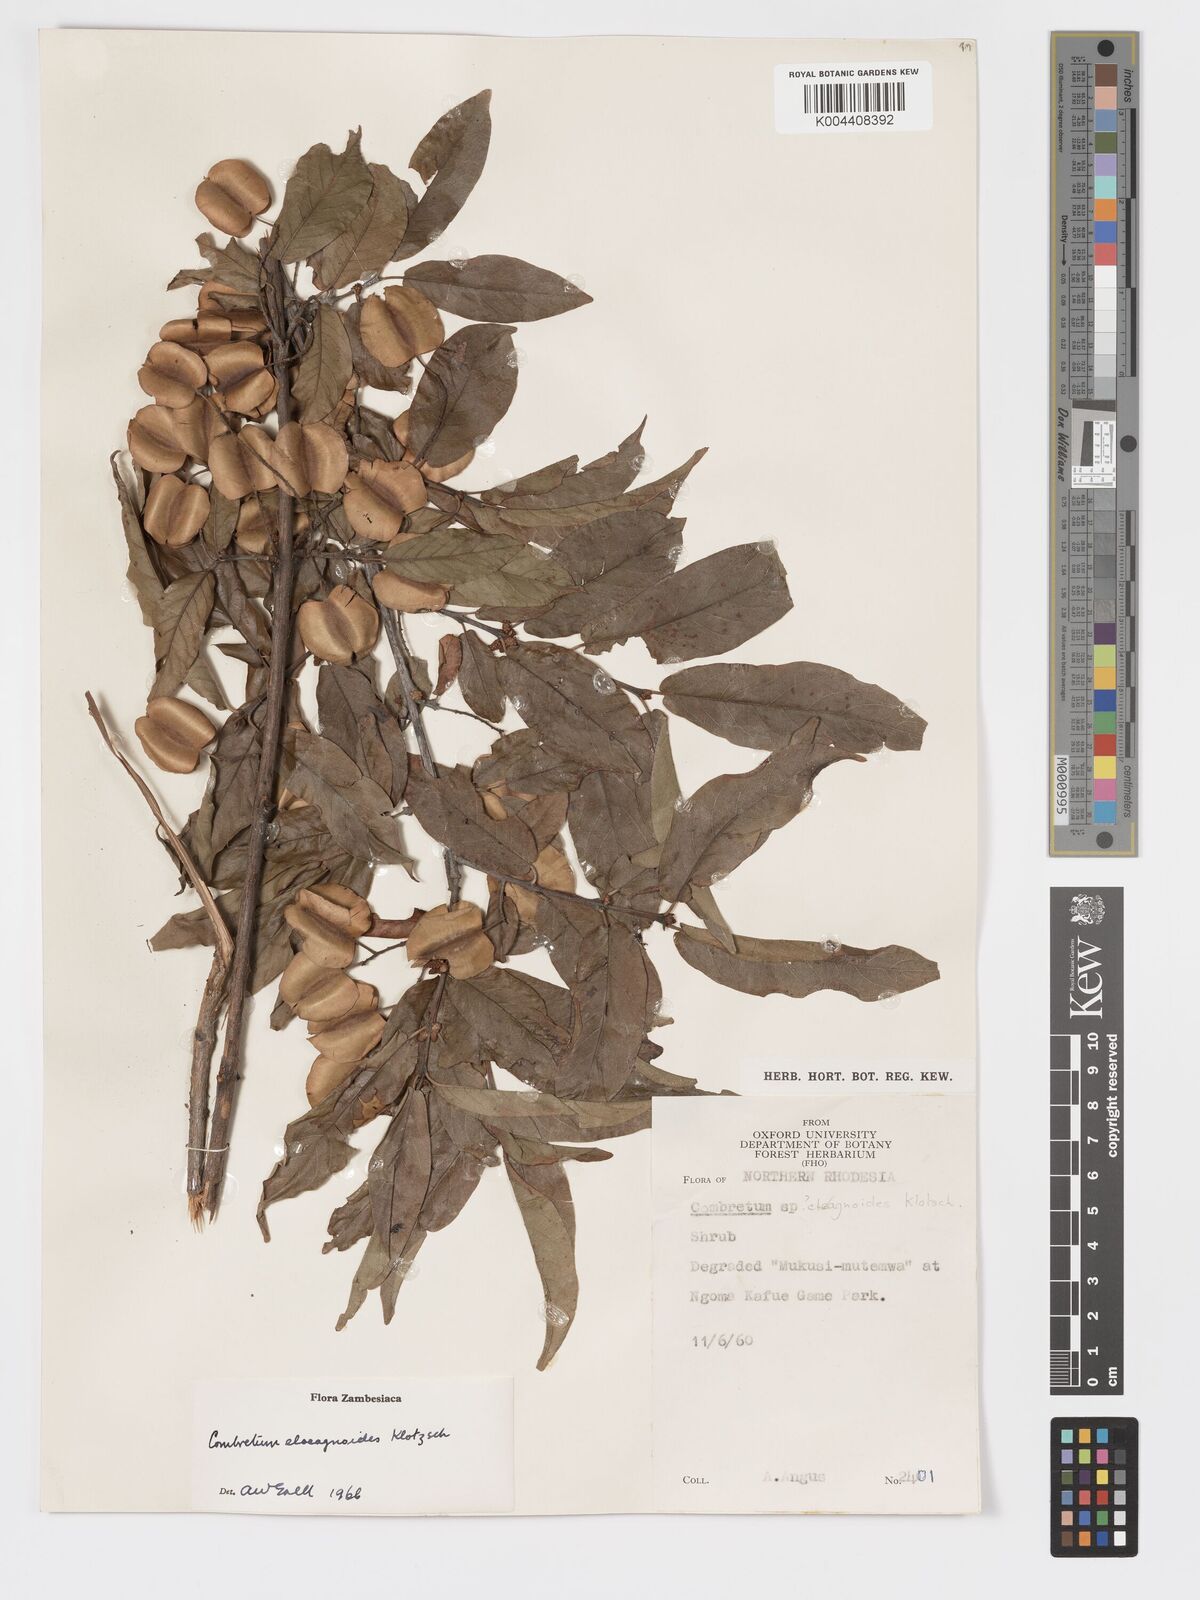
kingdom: Plantae
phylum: Tracheophyta
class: Magnoliopsida
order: Myrtales
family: Combretaceae
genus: Combretum
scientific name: Combretum elaeagnoides
